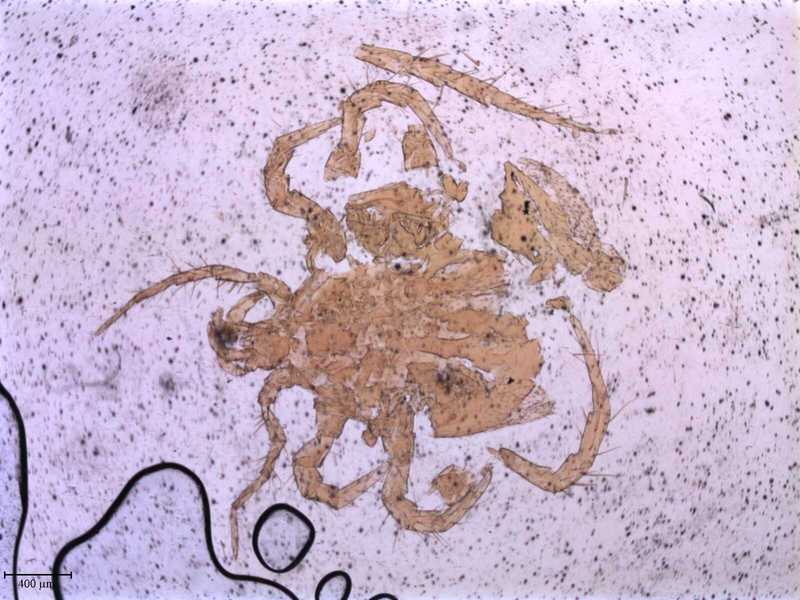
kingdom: Animalia
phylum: Arthropoda
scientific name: Arthropoda
